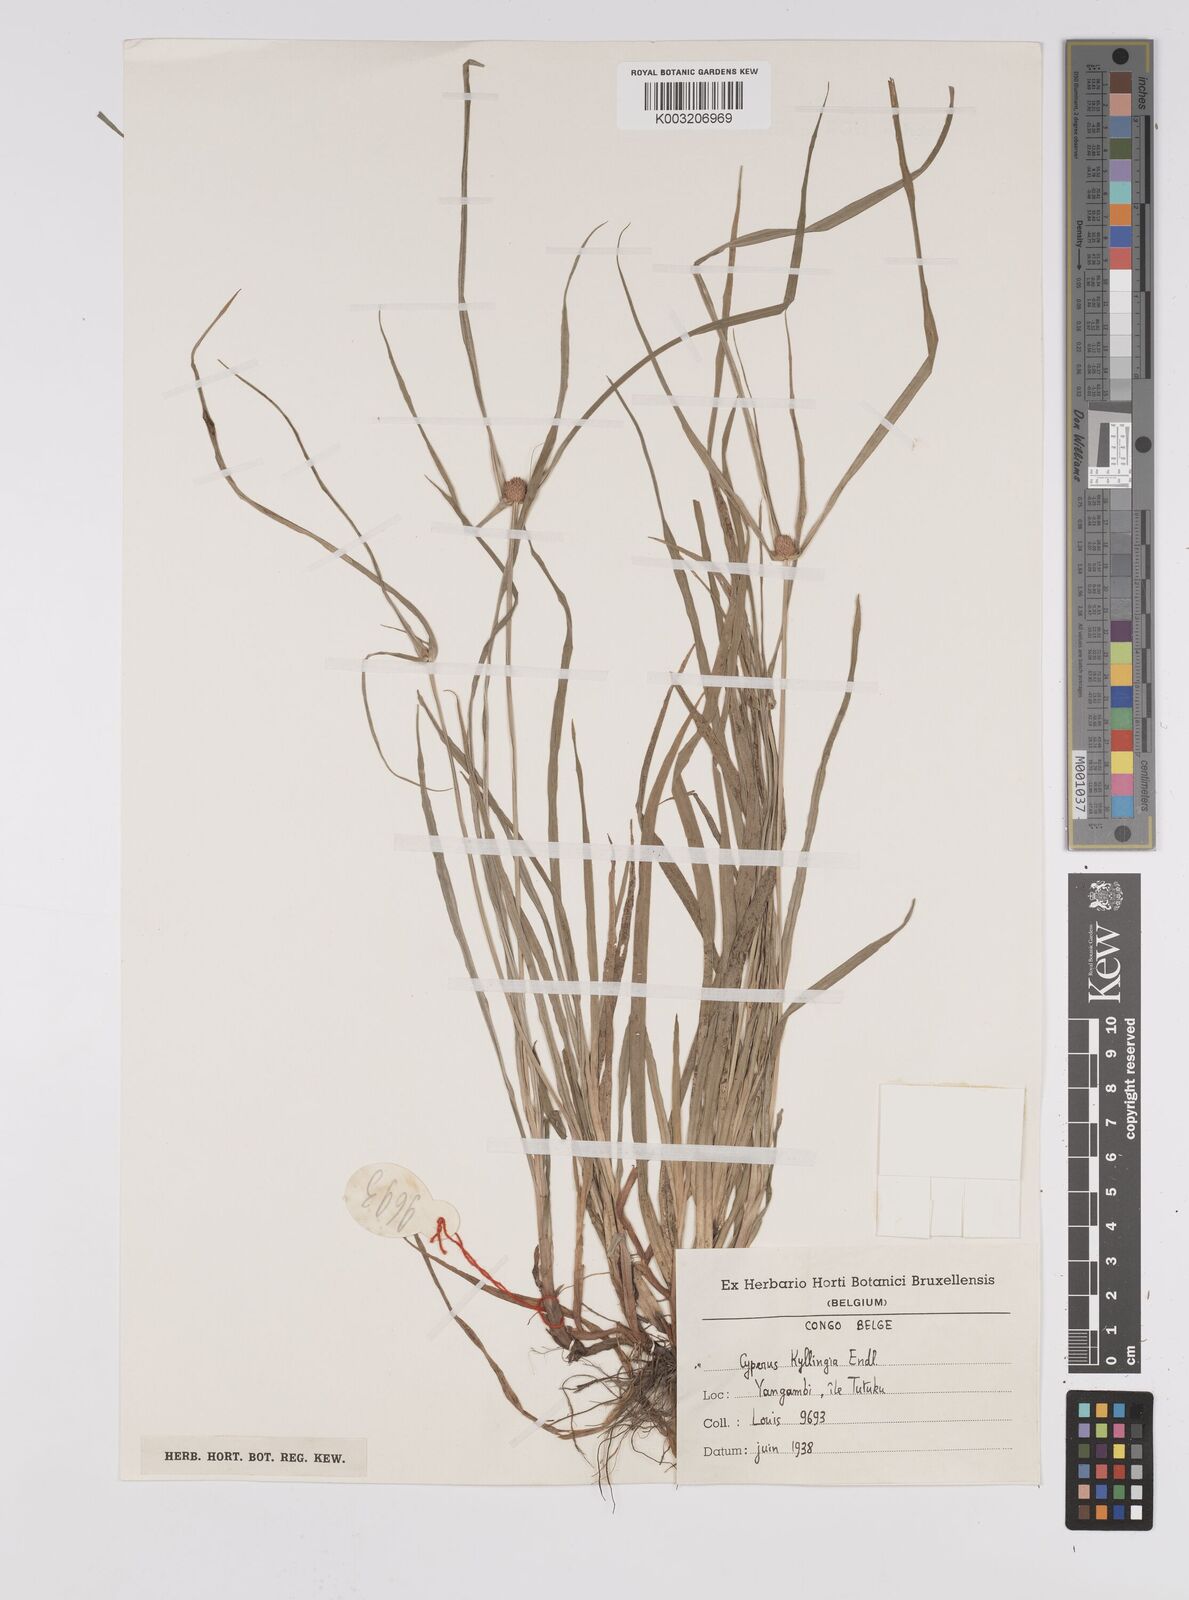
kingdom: Plantae
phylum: Tracheophyta
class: Liliopsida
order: Poales
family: Cyperaceae
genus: Cyperus
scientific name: Cyperus nemoralis
